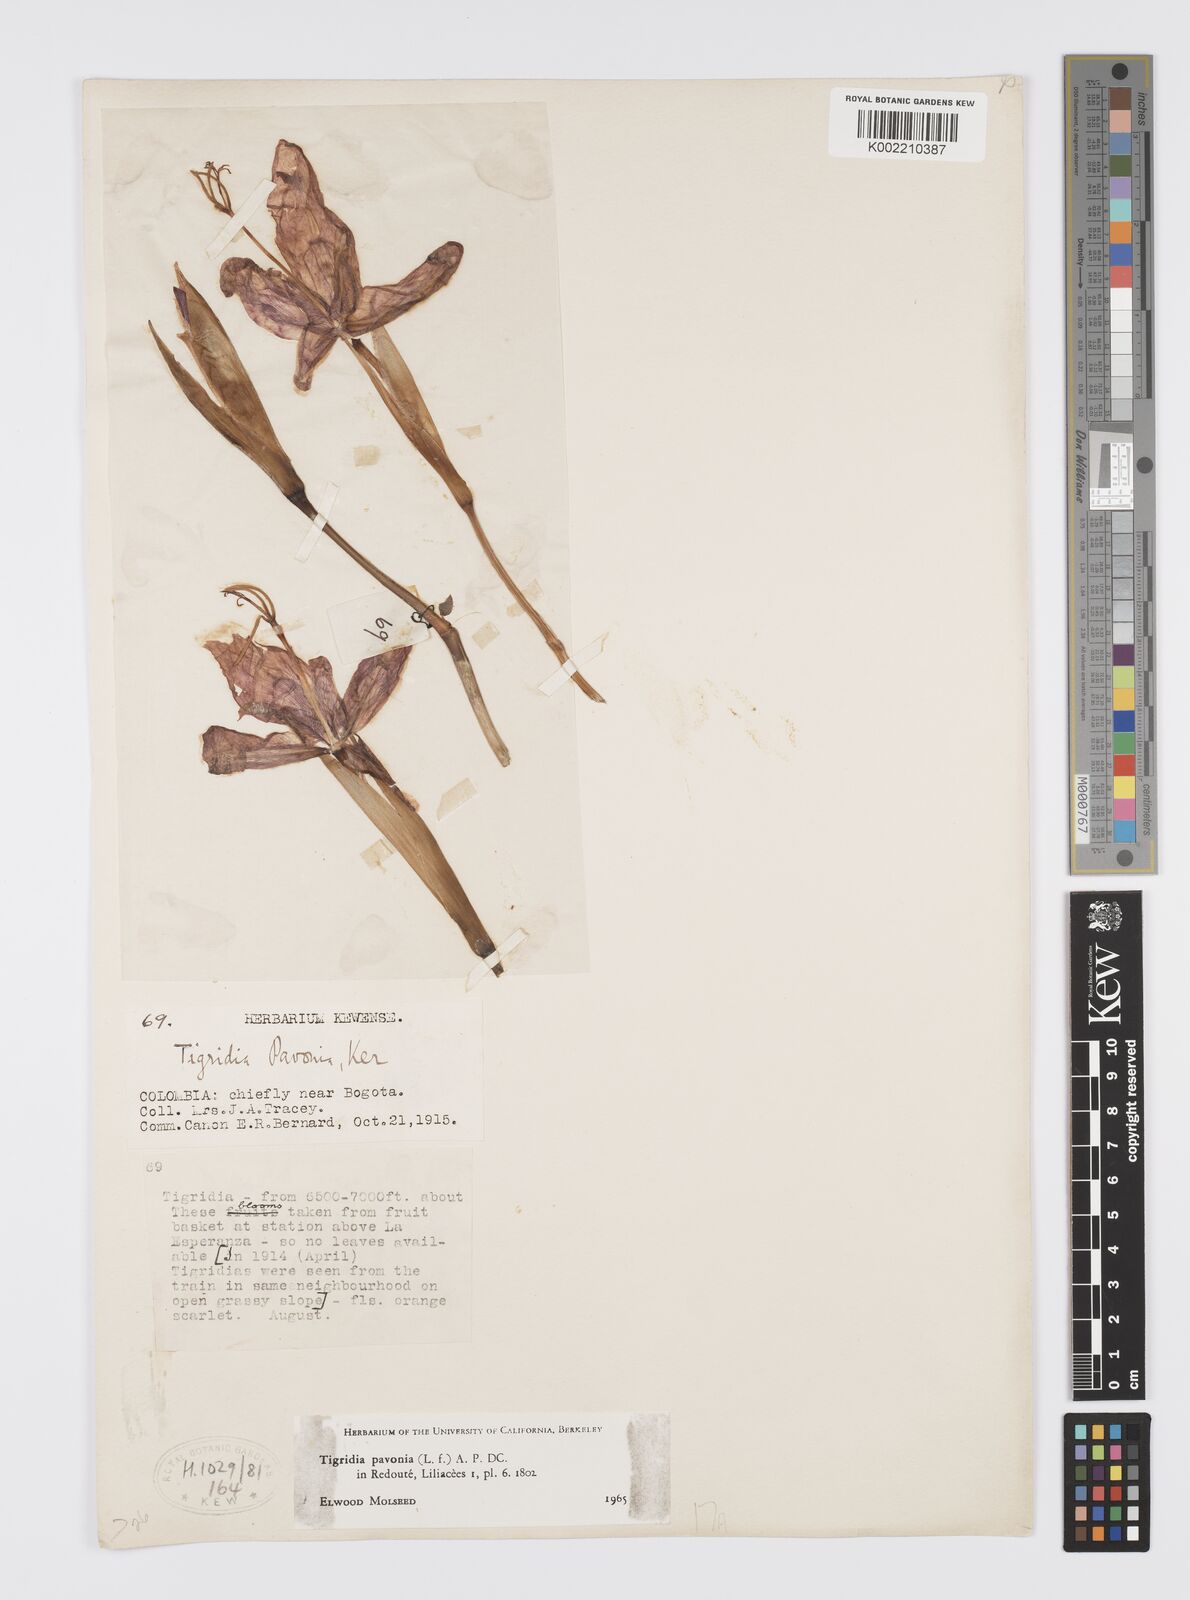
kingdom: Plantae
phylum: Tracheophyta
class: Liliopsida
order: Asparagales
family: Iridaceae
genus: Tigridia
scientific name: Tigridia pavonia
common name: Peacock-flower
